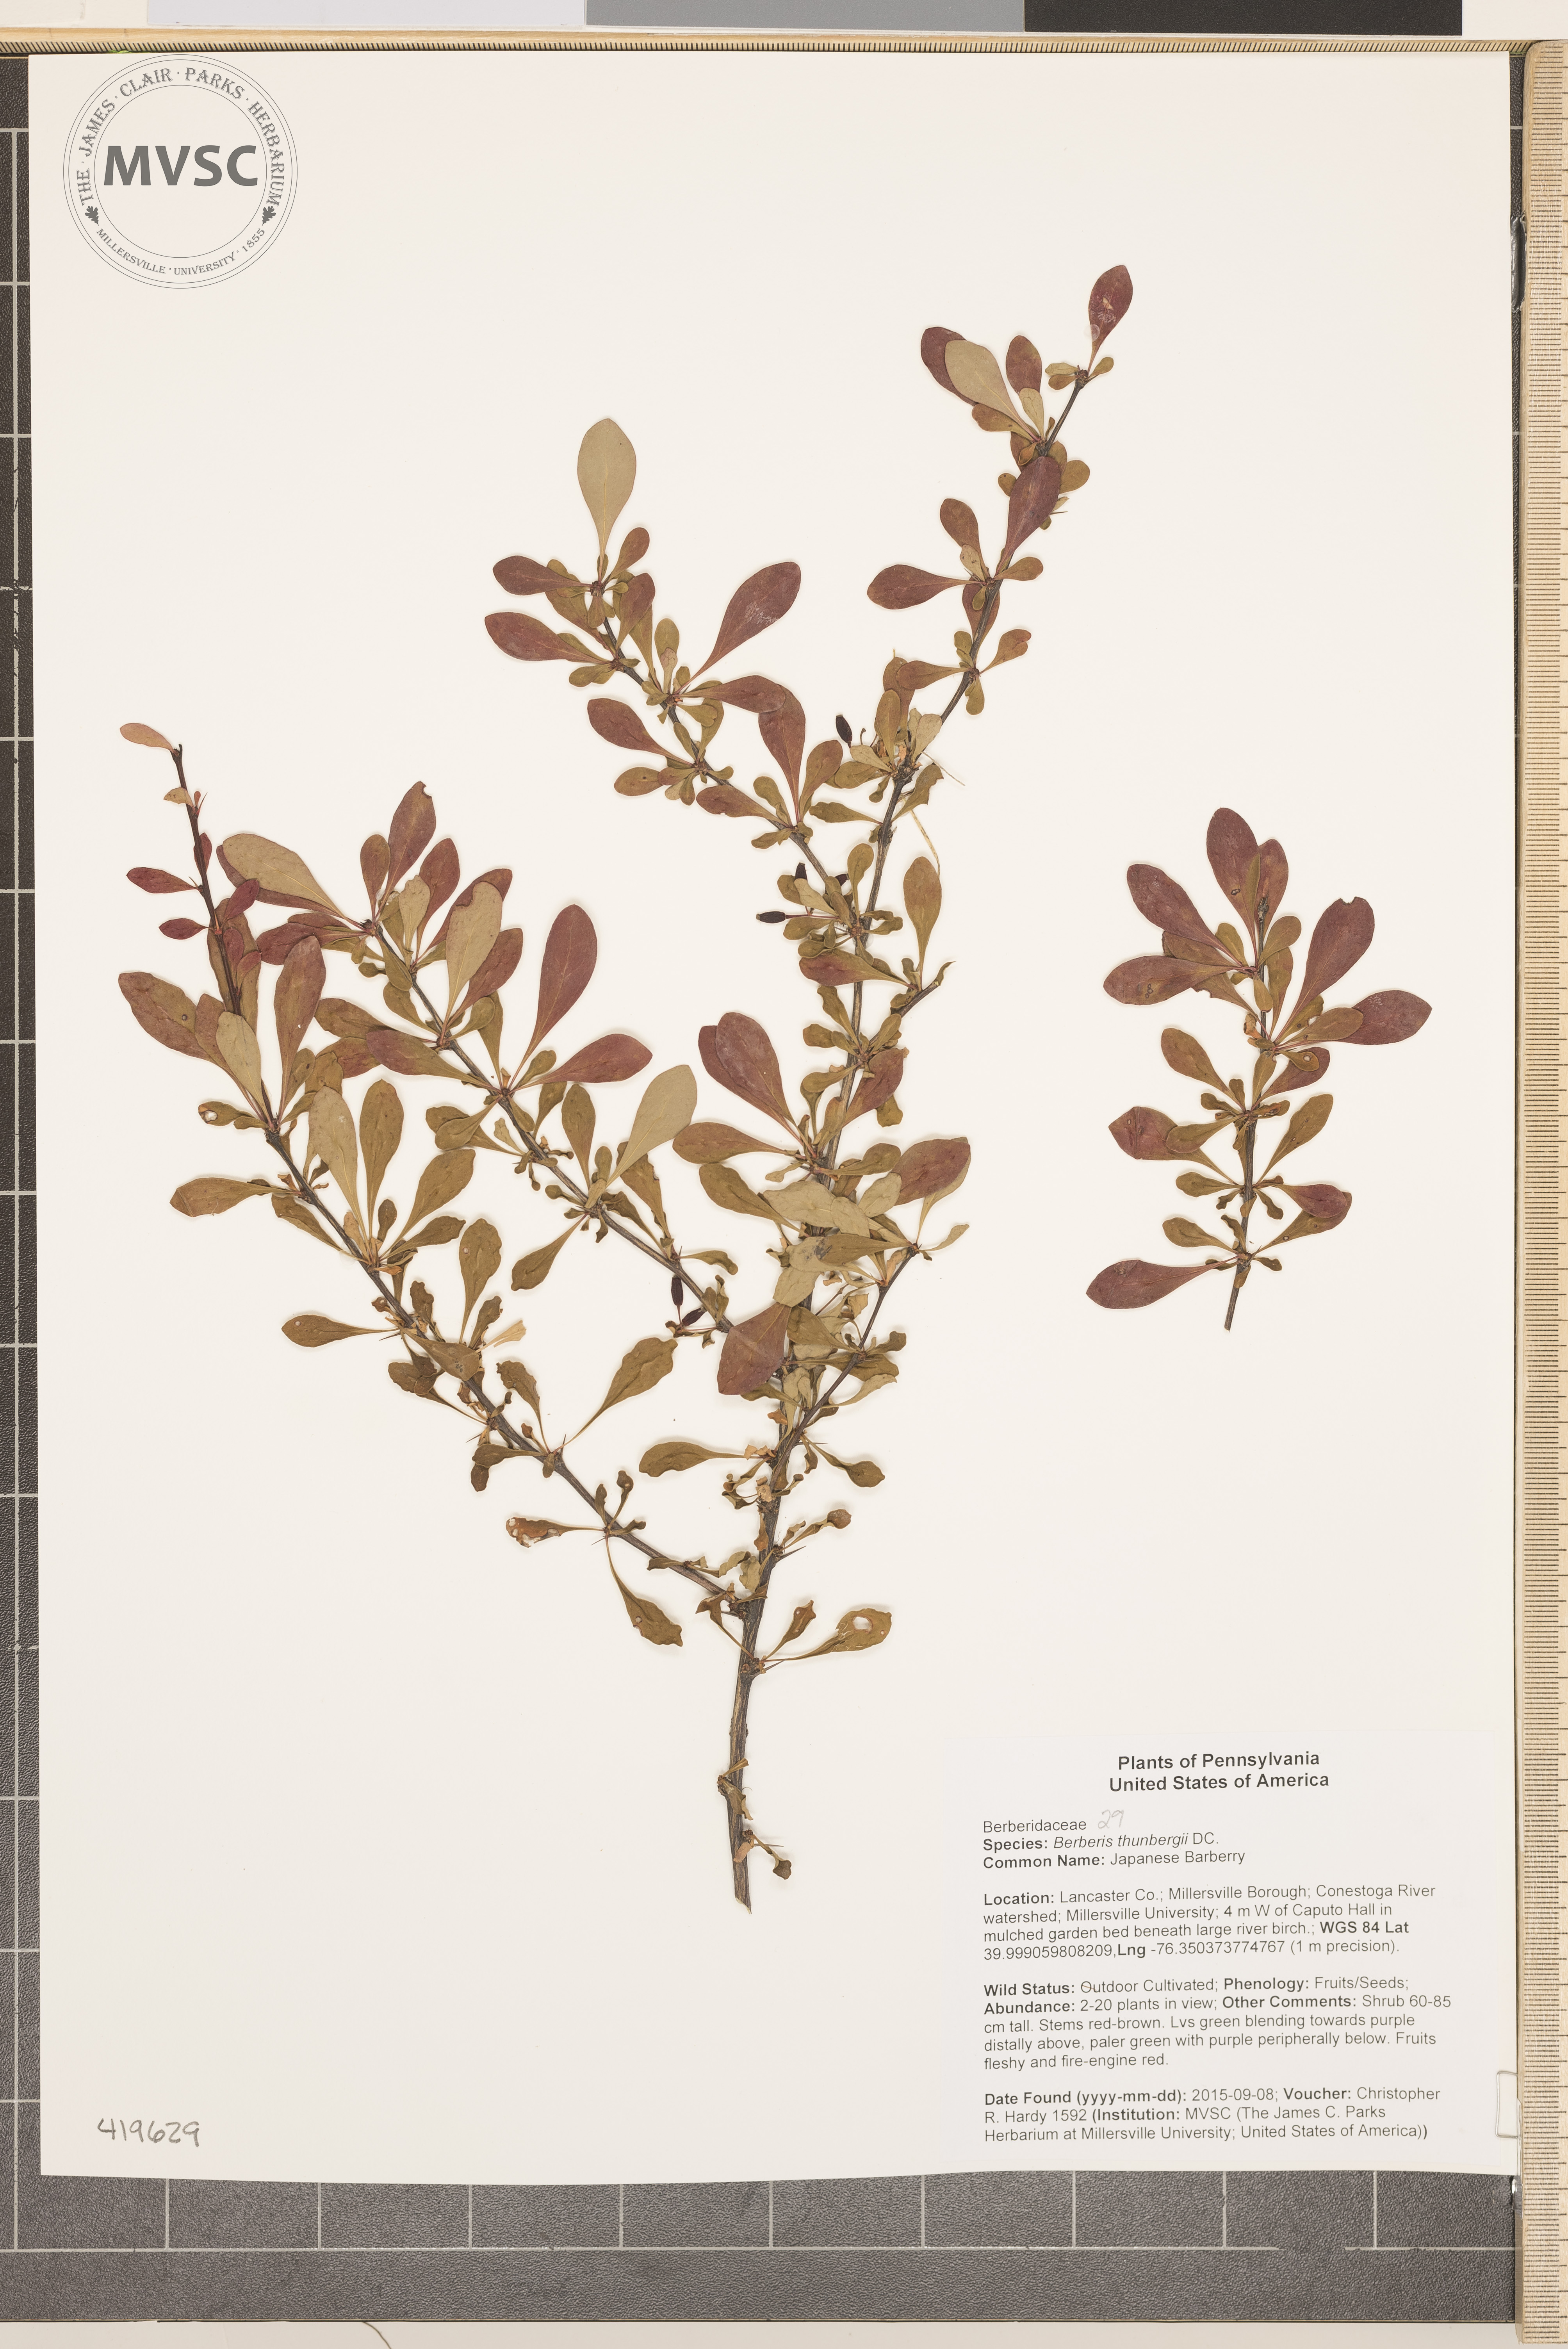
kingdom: Plantae
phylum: Tracheophyta
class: Magnoliopsida
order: Ranunculales
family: Berberidaceae
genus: Berberis
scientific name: Berberis thunbergii
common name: Japanese Barberry
